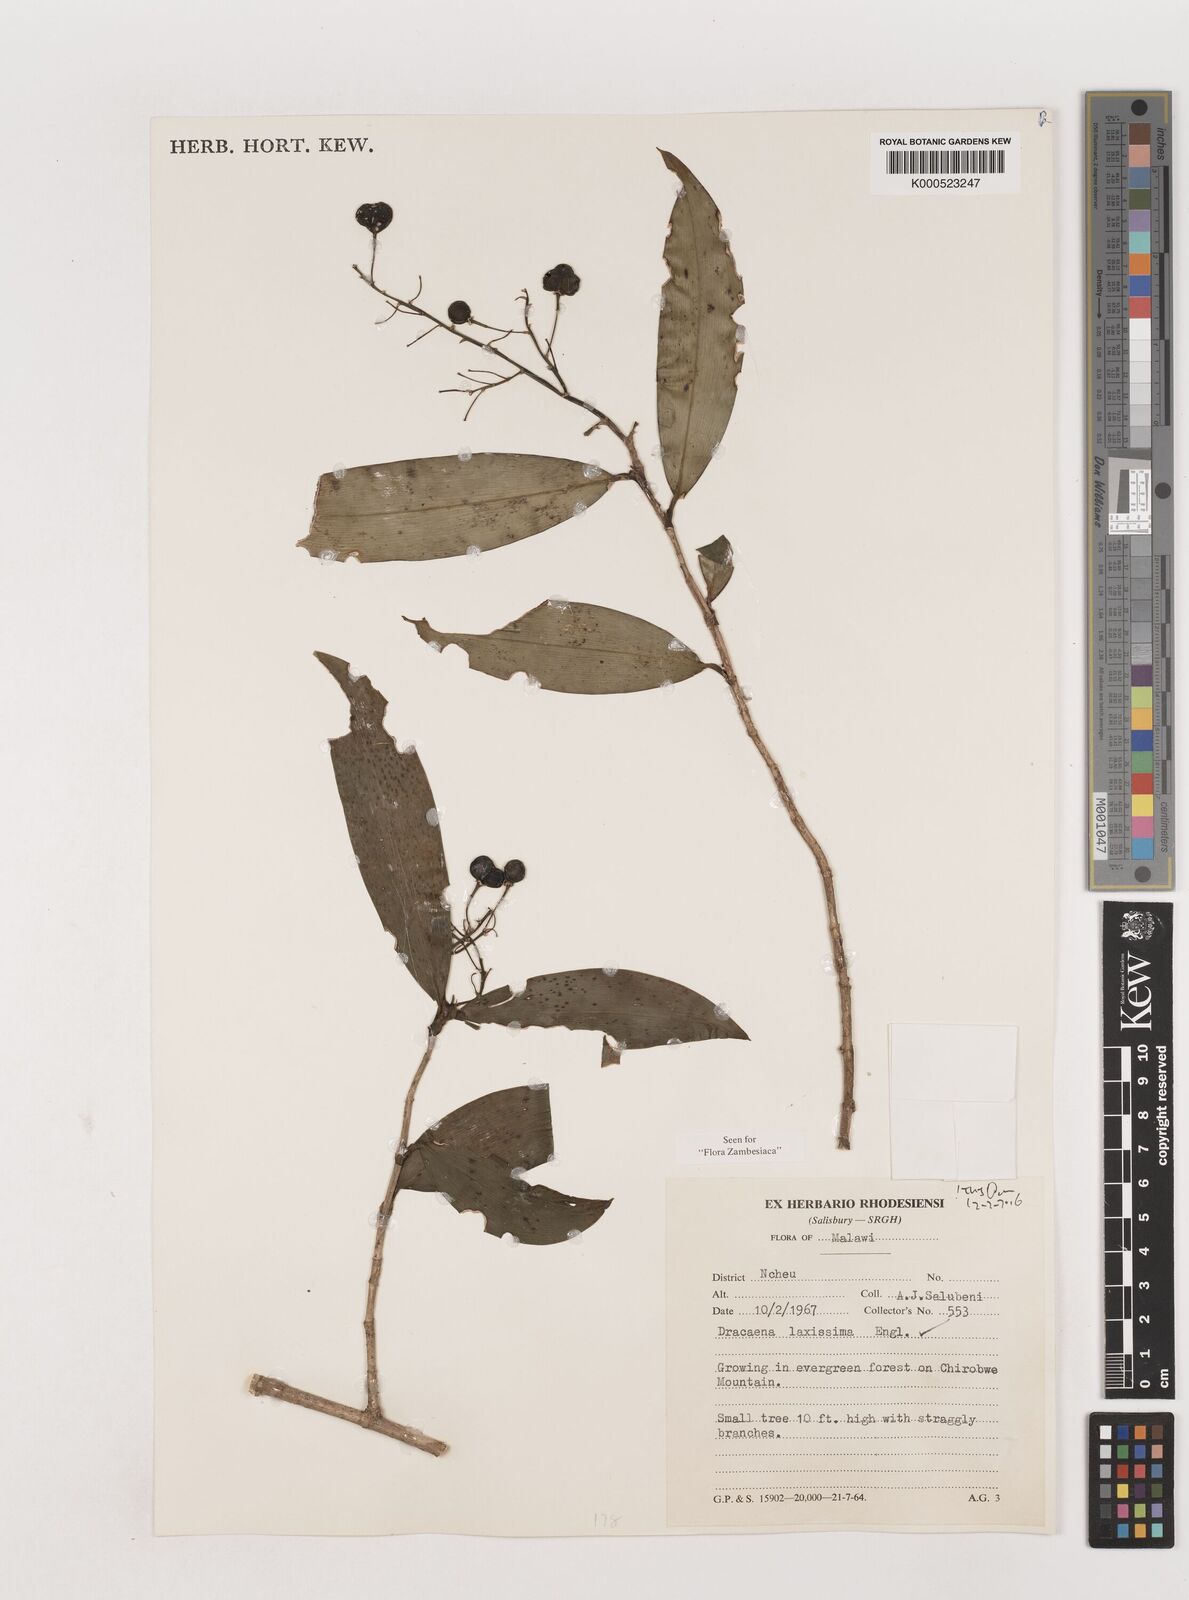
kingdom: Plantae
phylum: Tracheophyta
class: Liliopsida
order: Asparagales
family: Asparagaceae
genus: Dracaena
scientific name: Dracaena laxissima
